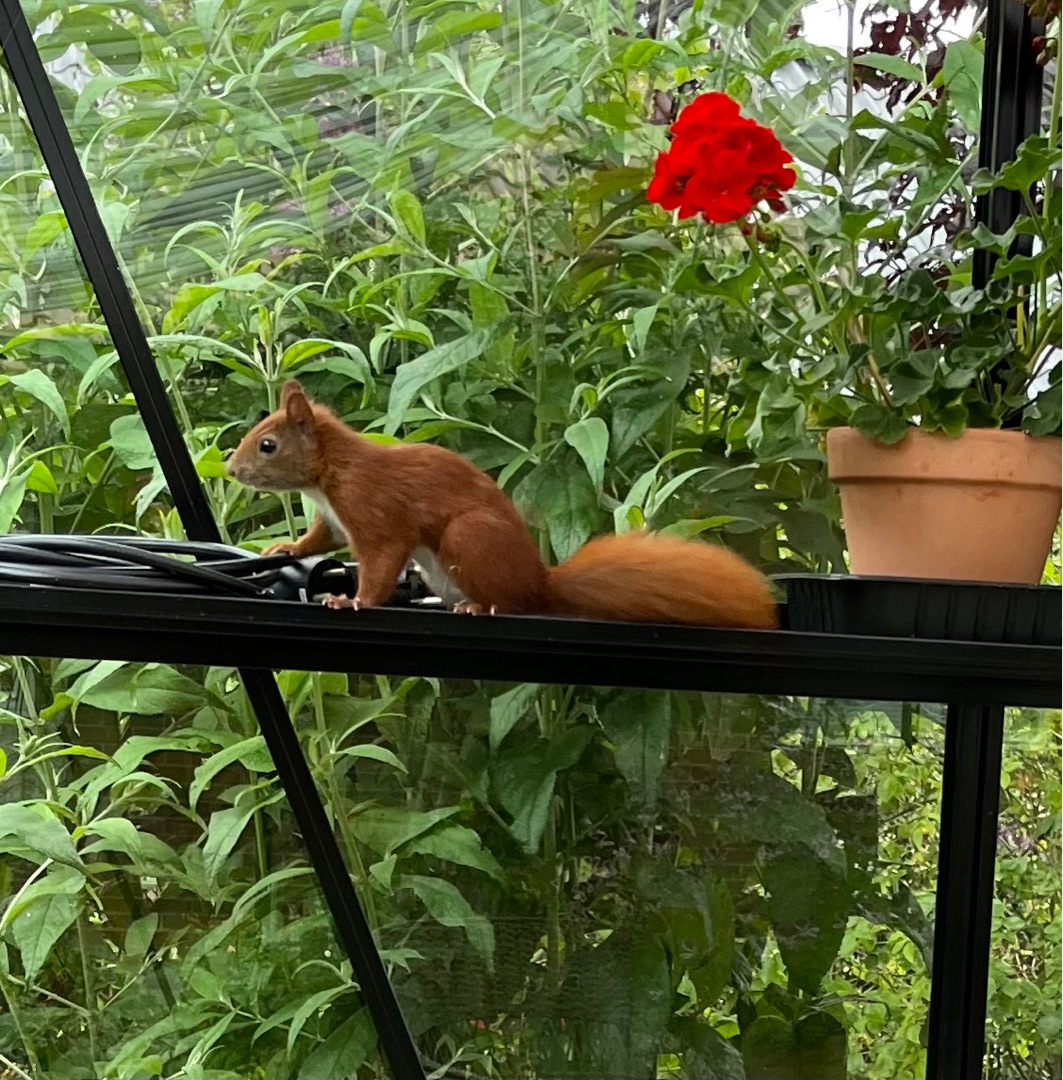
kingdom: Animalia
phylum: Chordata
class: Mammalia
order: Rodentia
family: Sciuridae
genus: Sciurus
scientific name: Sciurus vulgaris
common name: Egern
